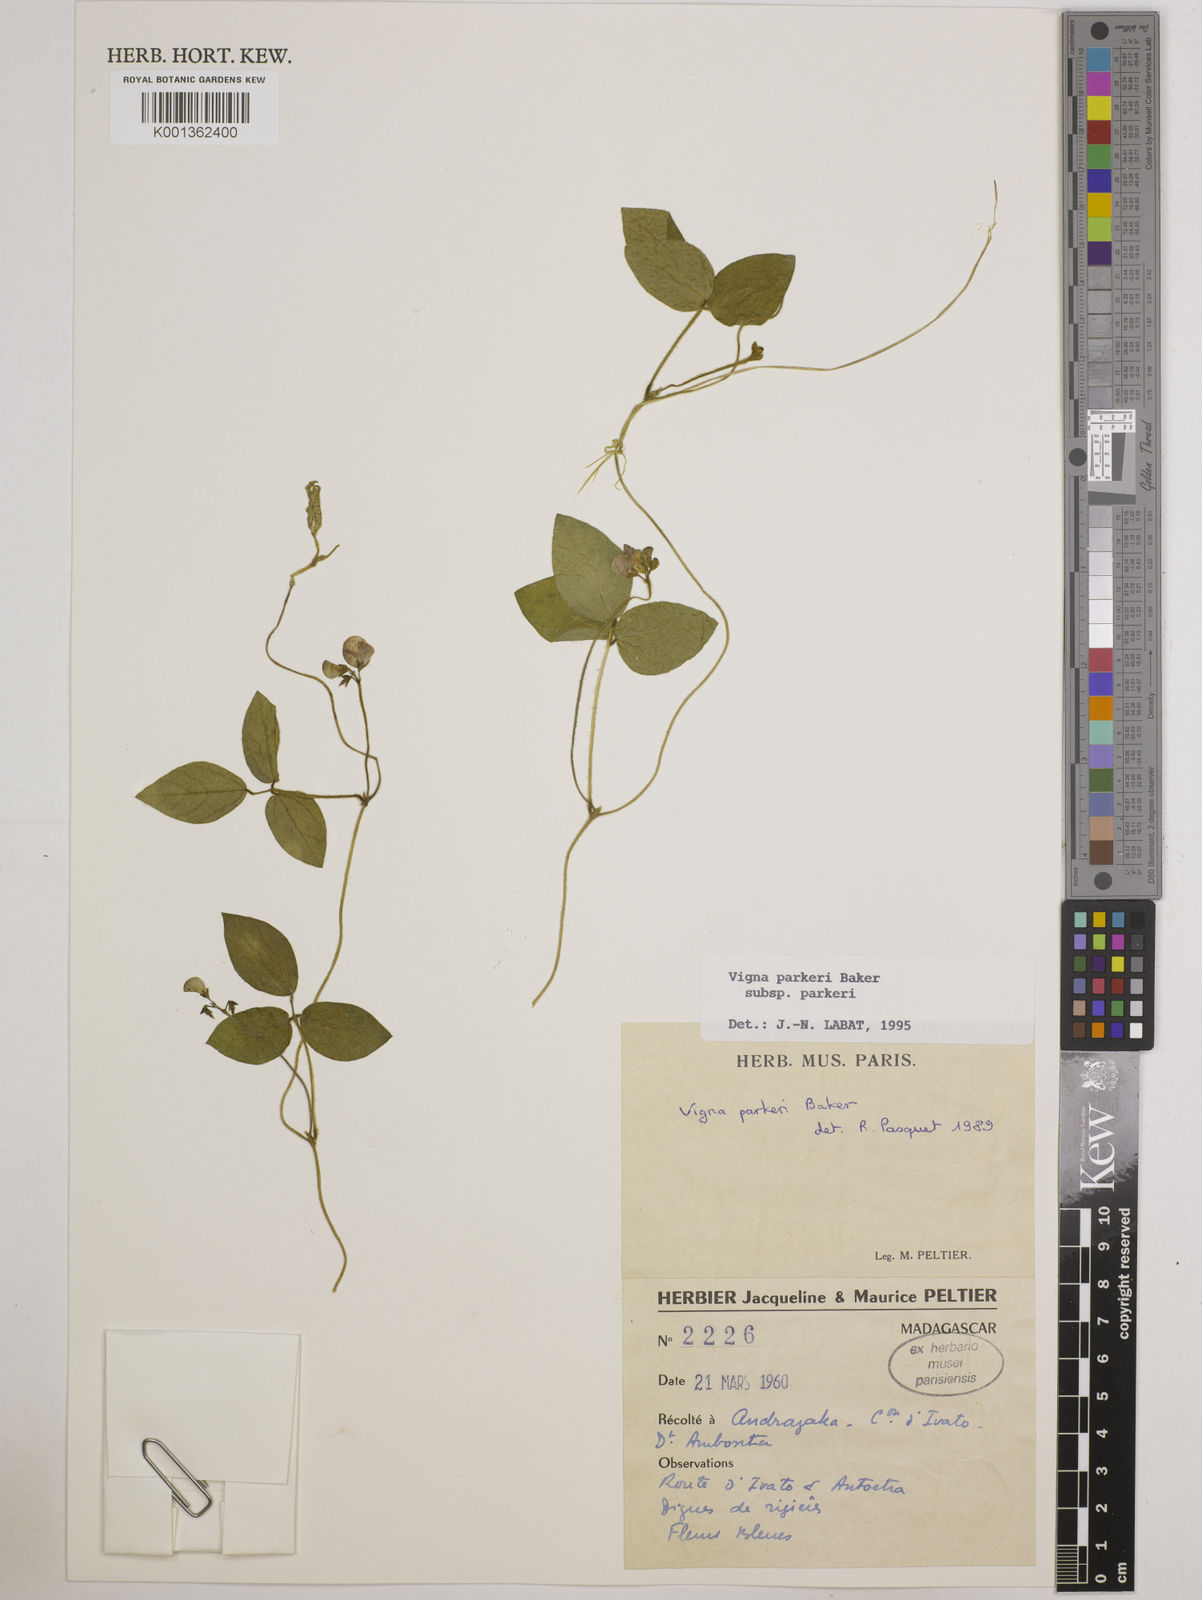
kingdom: Plantae
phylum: Tracheophyta
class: Magnoliopsida
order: Fabales
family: Fabaceae
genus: Vigna
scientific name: Vigna
